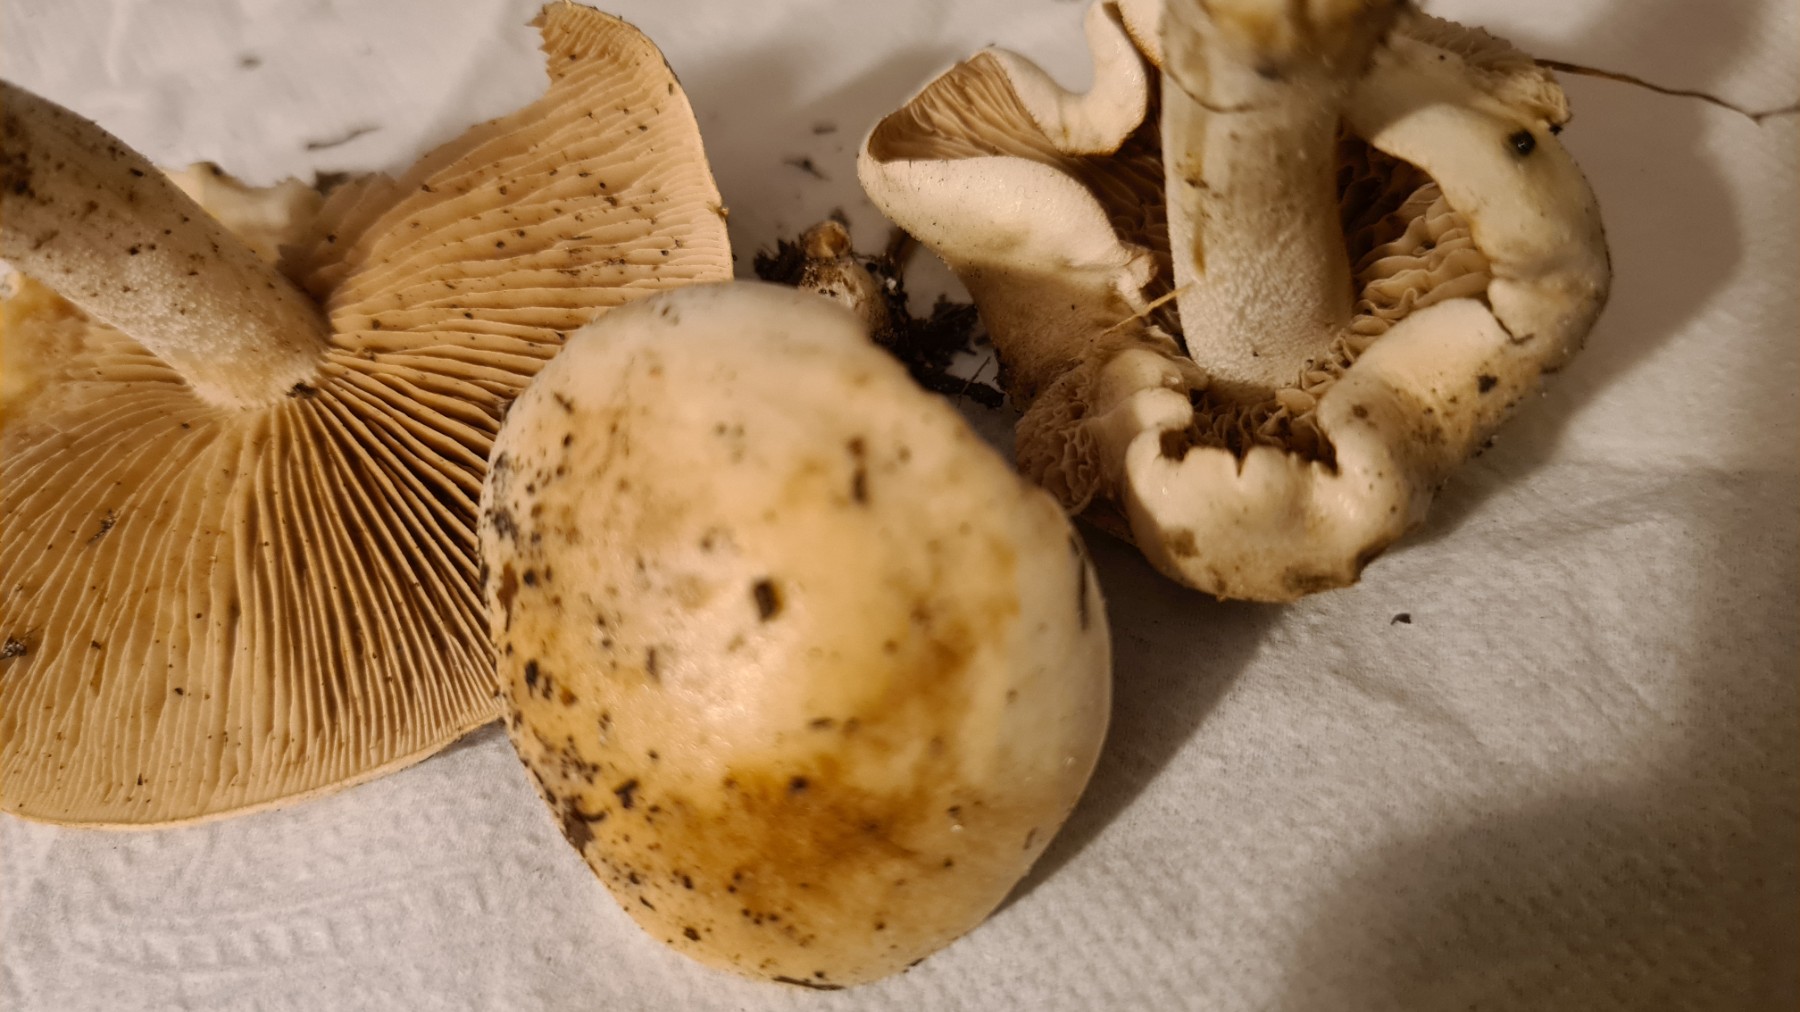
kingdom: Fungi
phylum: Basidiomycota
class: Agaricomycetes
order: Agaricales
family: Hymenogastraceae
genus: Hebeloma
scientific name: Hebeloma
